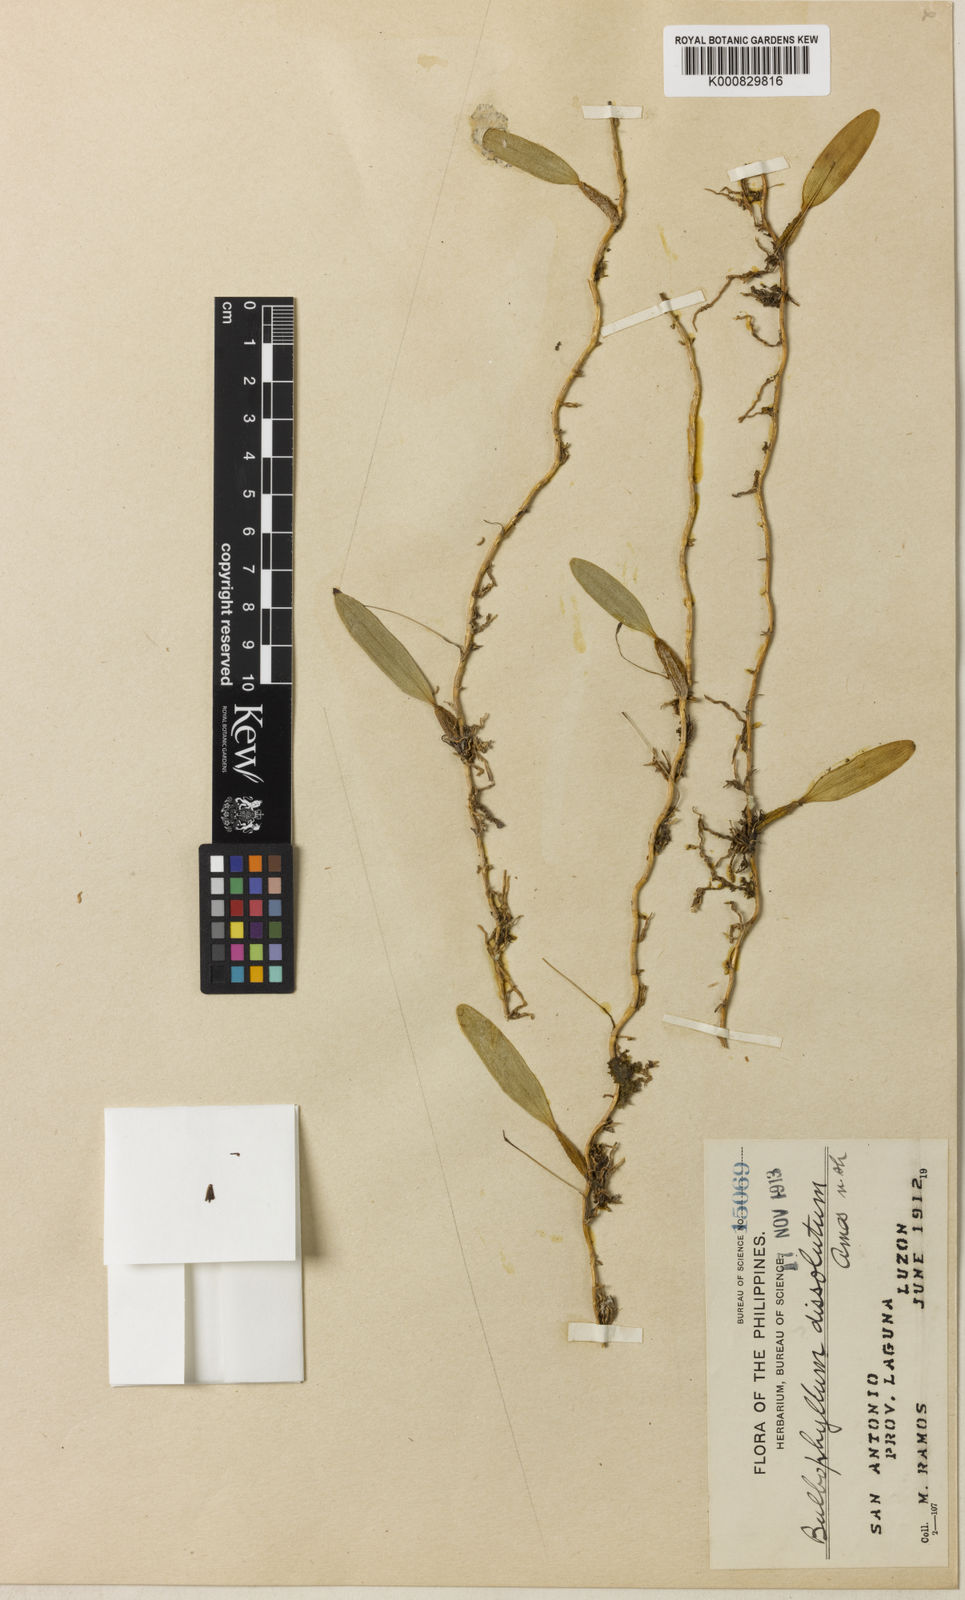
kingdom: Plantae
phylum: Tracheophyta
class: Liliopsida
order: Asparagales
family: Orchidaceae
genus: Bulbophyllum
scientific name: Bulbophyllum dissolutum
